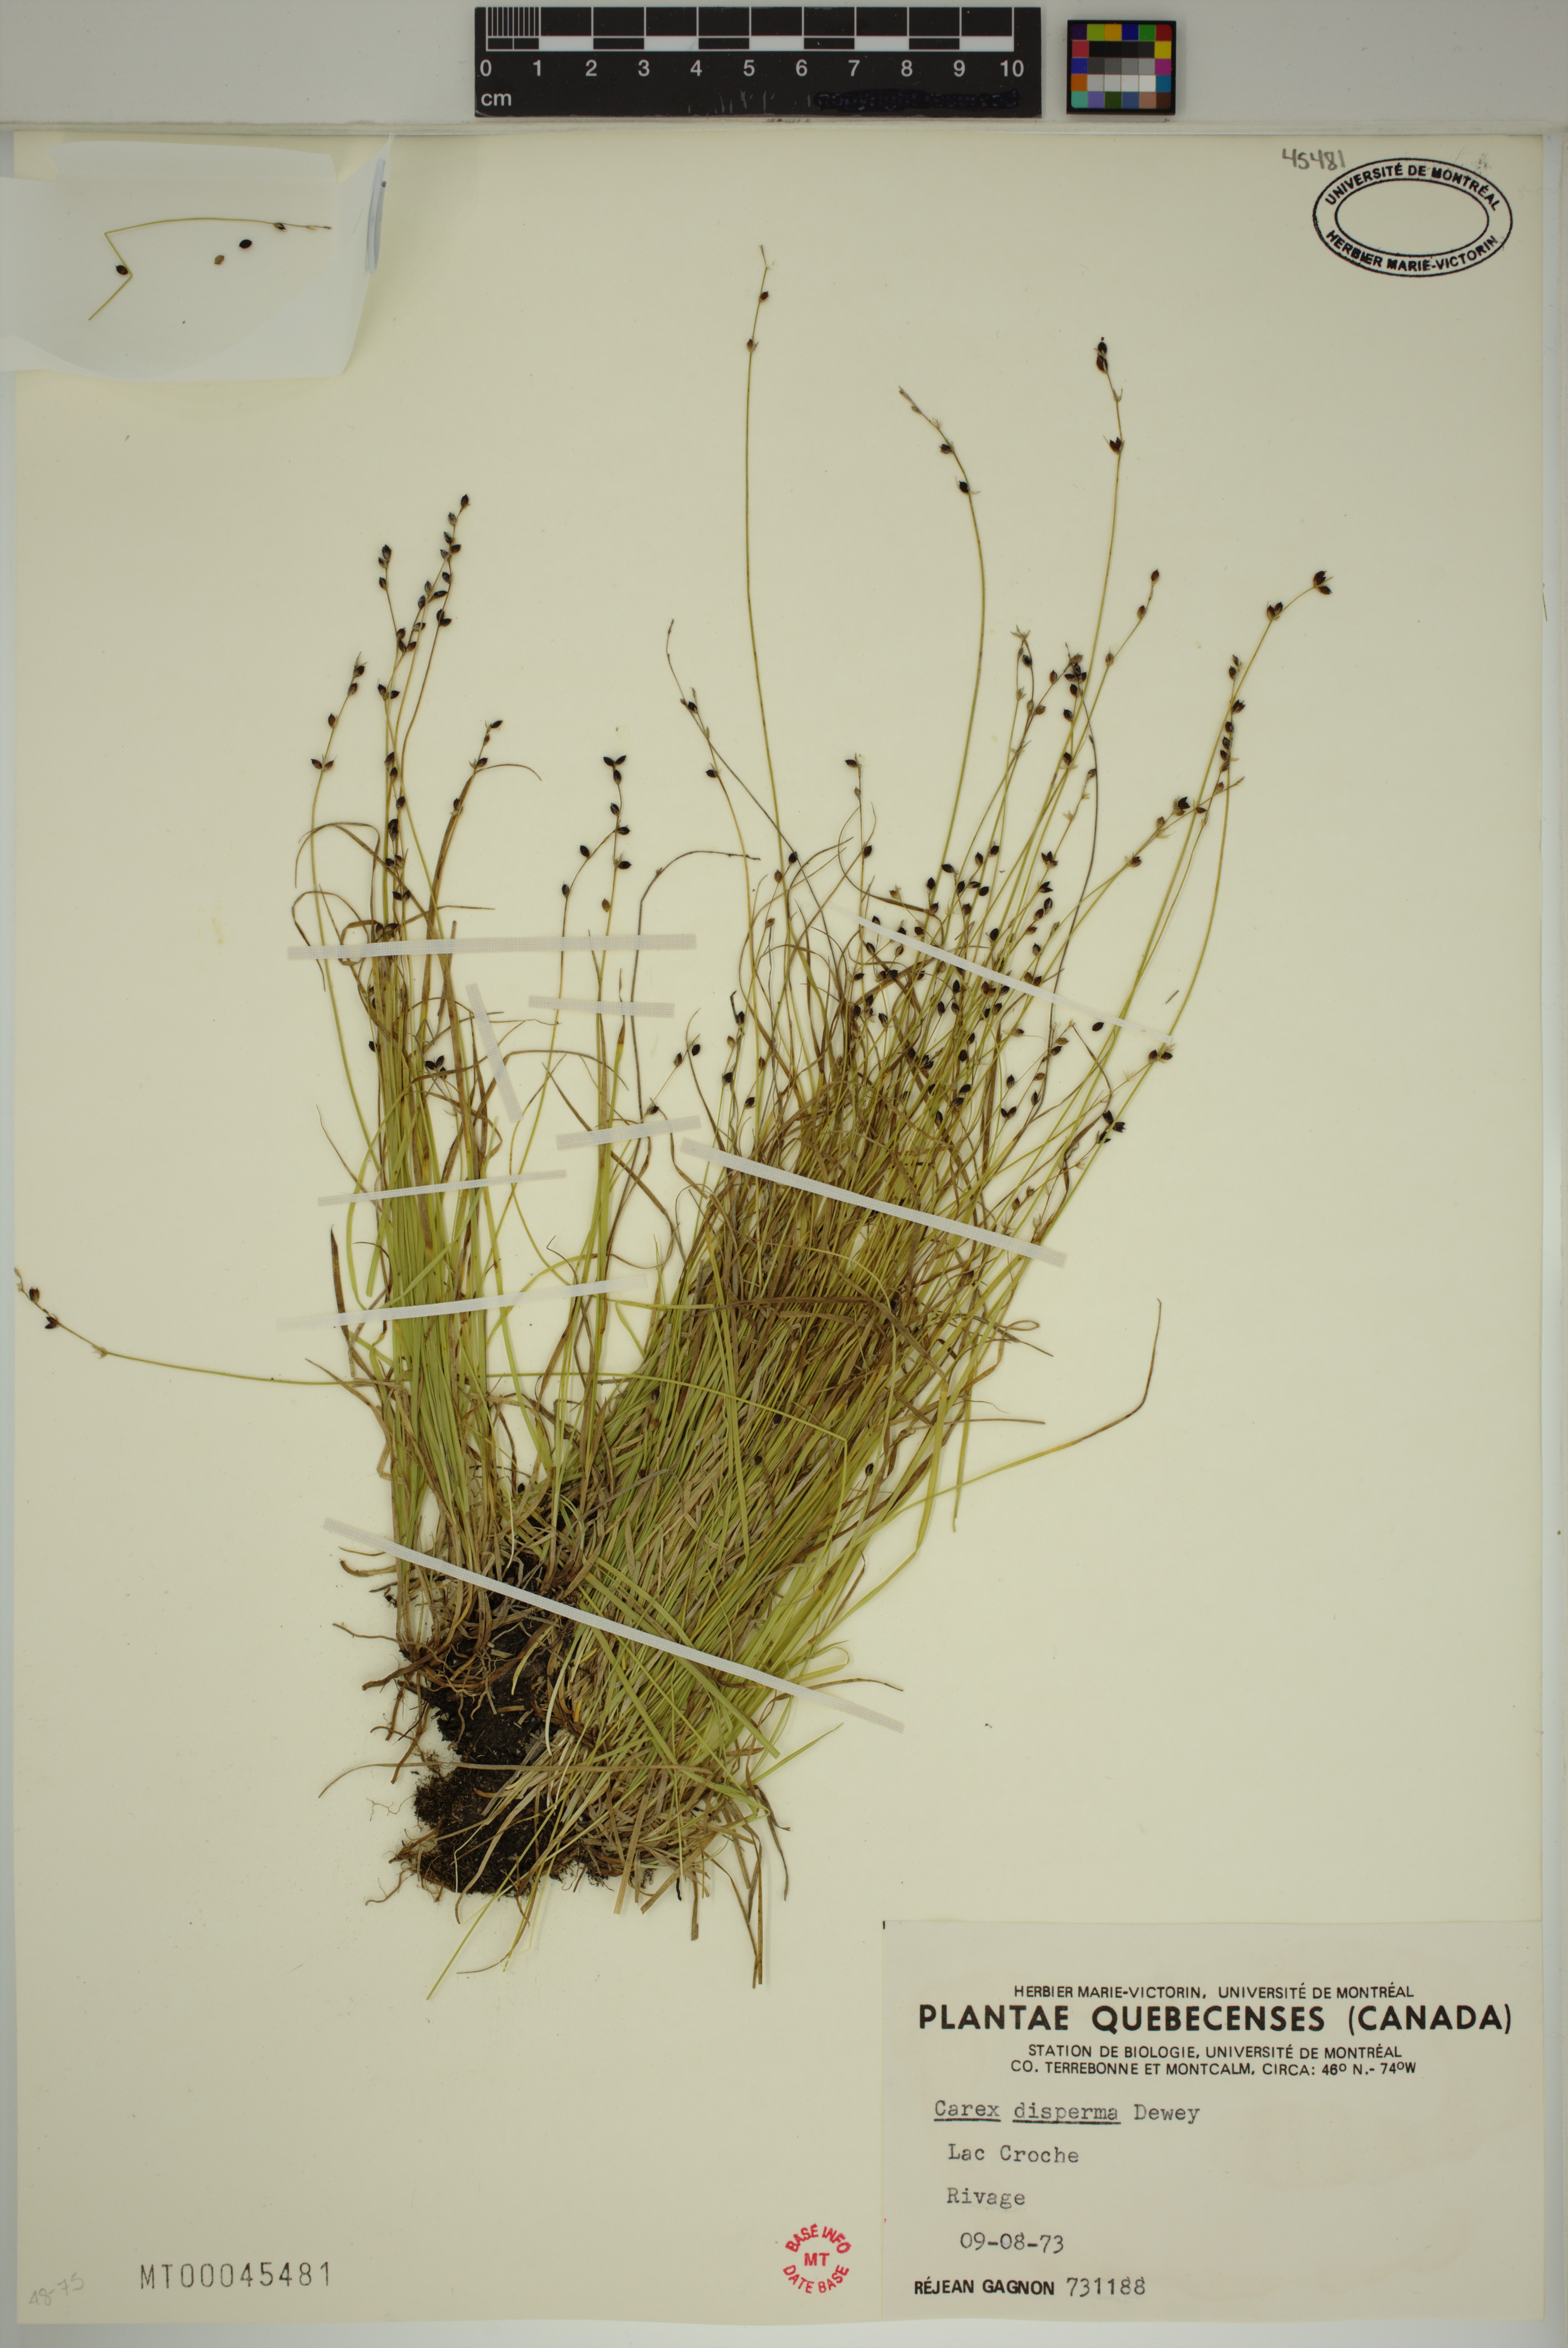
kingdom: Plantae
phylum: Tracheophyta
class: Liliopsida
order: Poales
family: Cyperaceae
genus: Carex
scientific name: Carex disperma
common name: Short-leaved sedge
